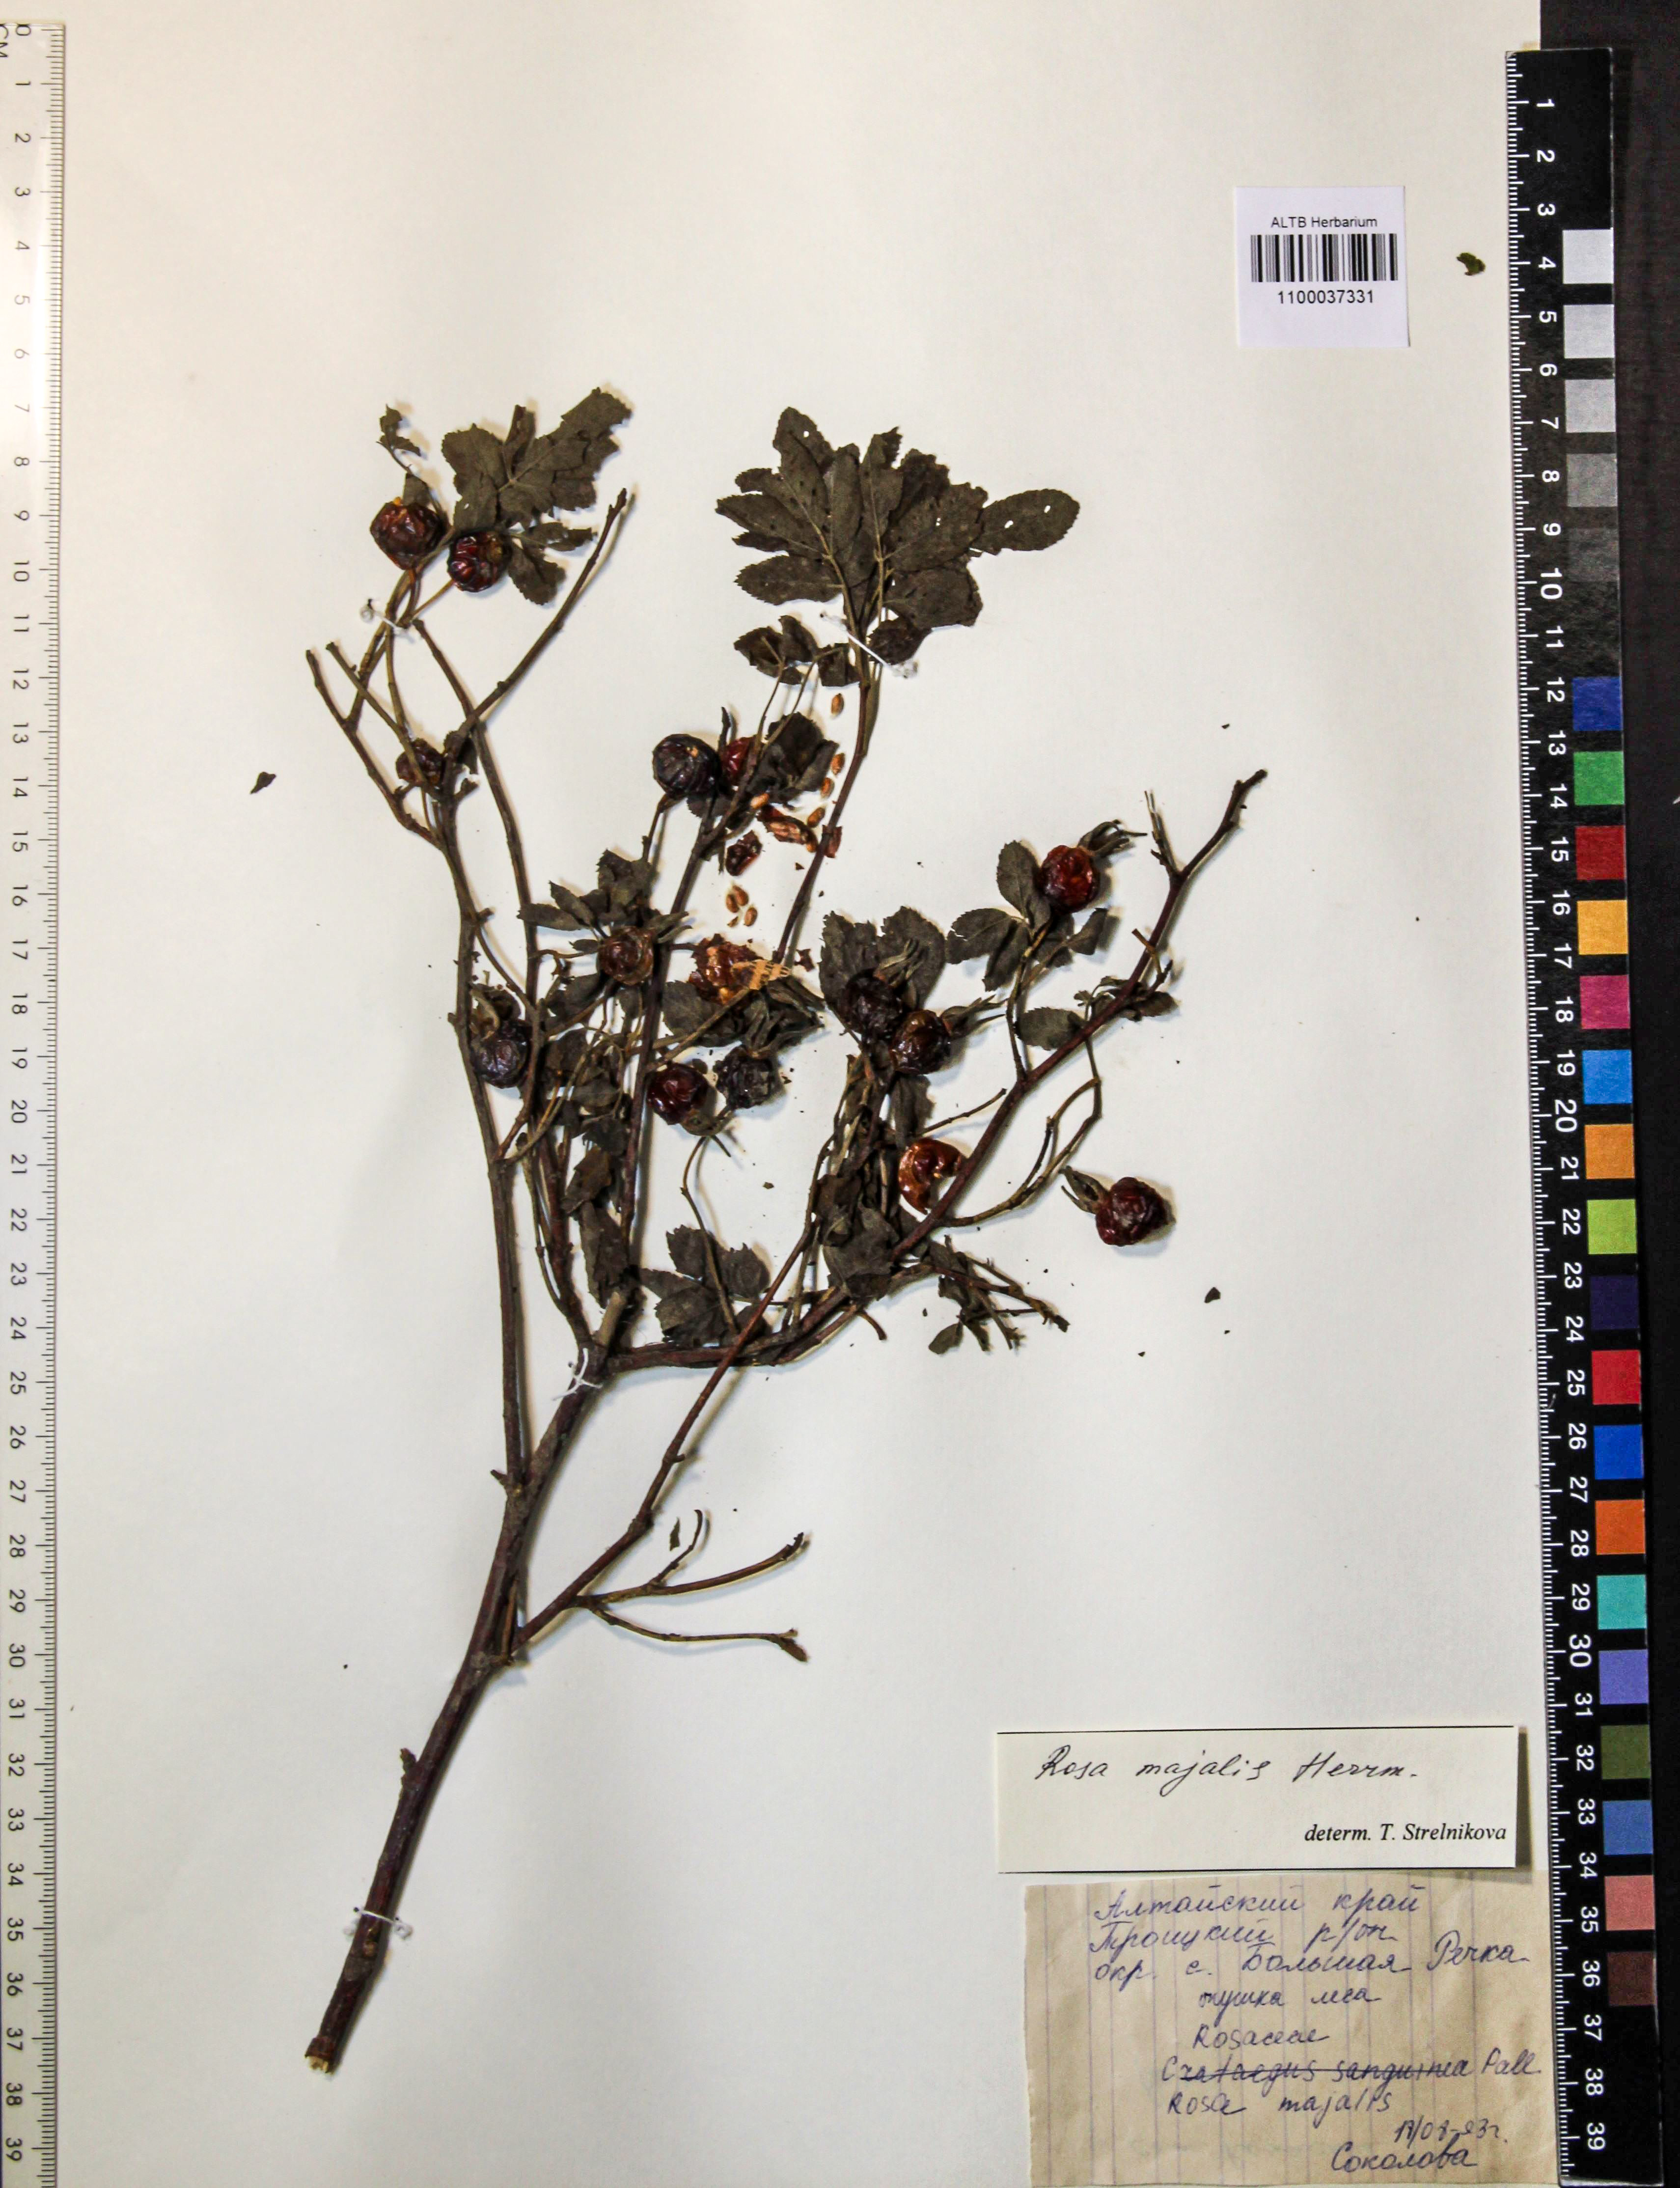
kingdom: Plantae
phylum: Tracheophyta
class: Magnoliopsida
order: Rosales
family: Rosaceae
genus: Rosa
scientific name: Rosa majalis
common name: Cinnamon rose
